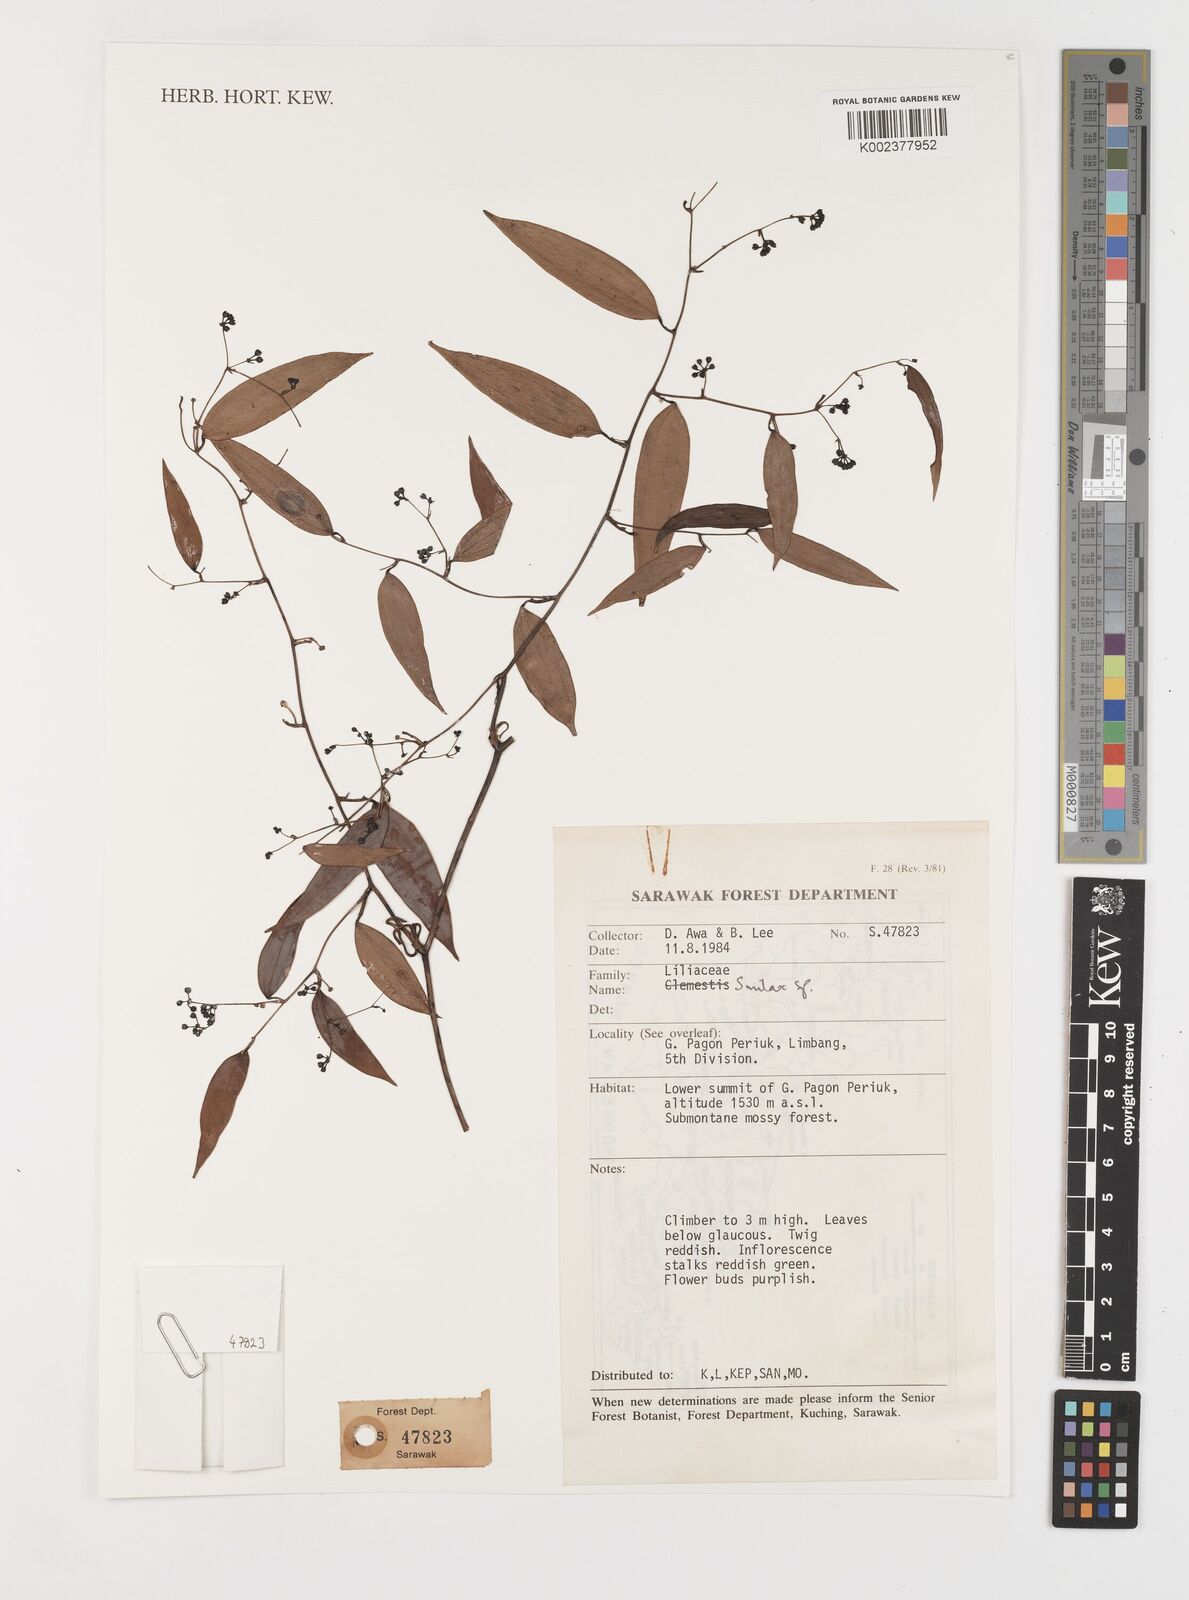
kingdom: Plantae
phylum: Tracheophyta
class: Liliopsida
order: Liliales
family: Smilacaceae
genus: Smilax
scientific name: Smilax
